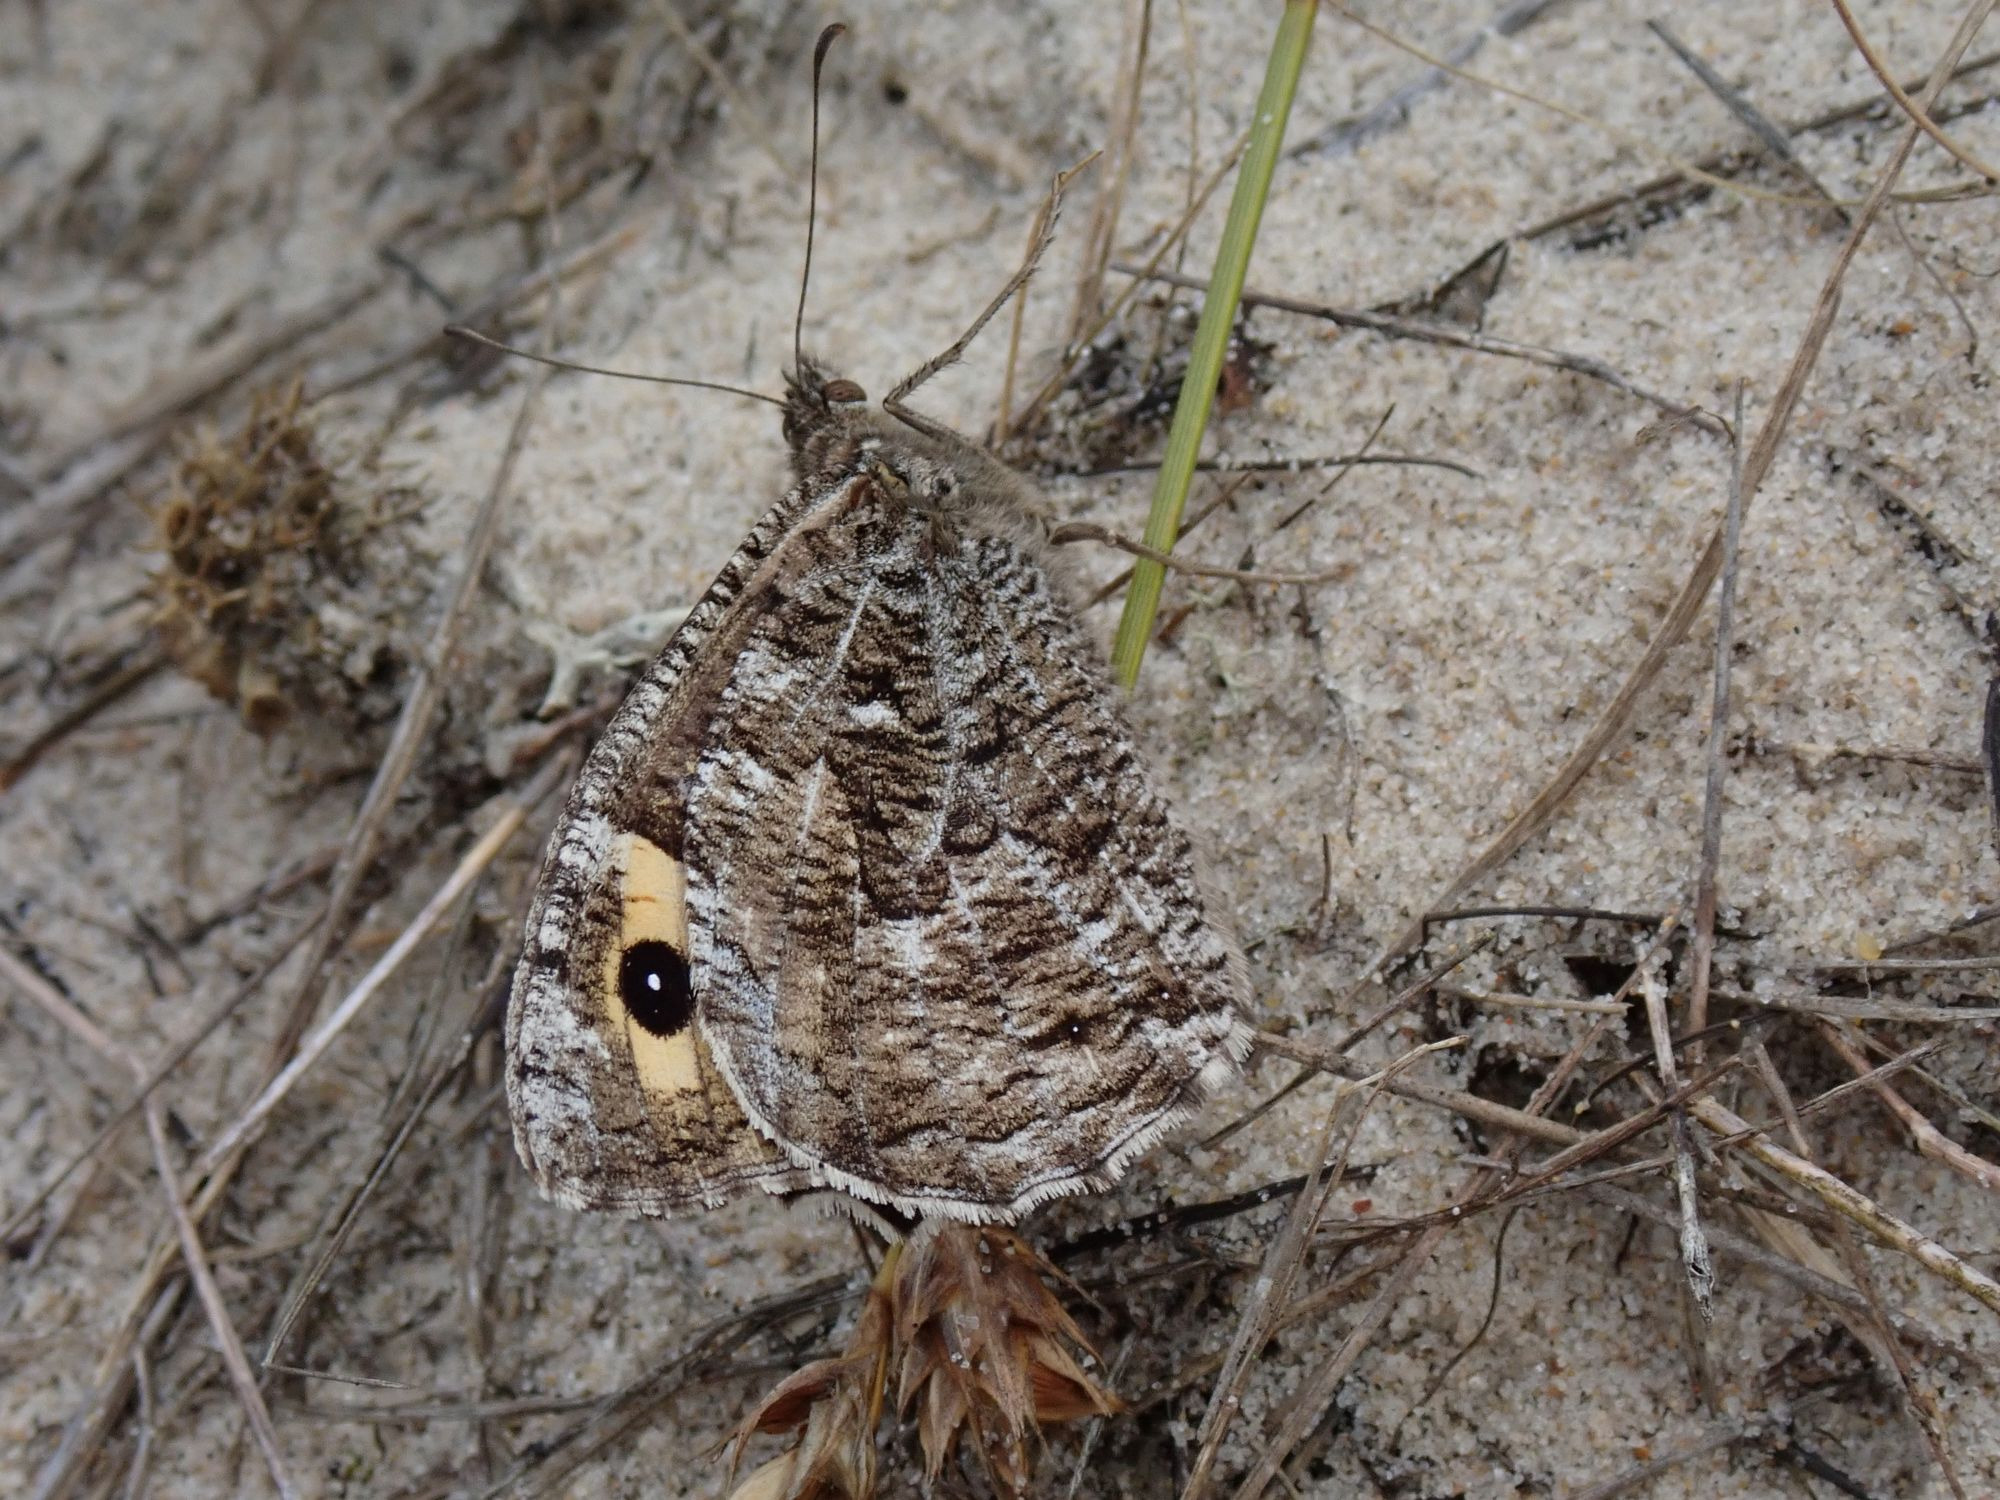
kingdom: Animalia
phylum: Arthropoda
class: Insecta
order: Lepidoptera
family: Nymphalidae
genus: Hipparchia
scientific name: Hipparchia semele
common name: Sandrandøje
